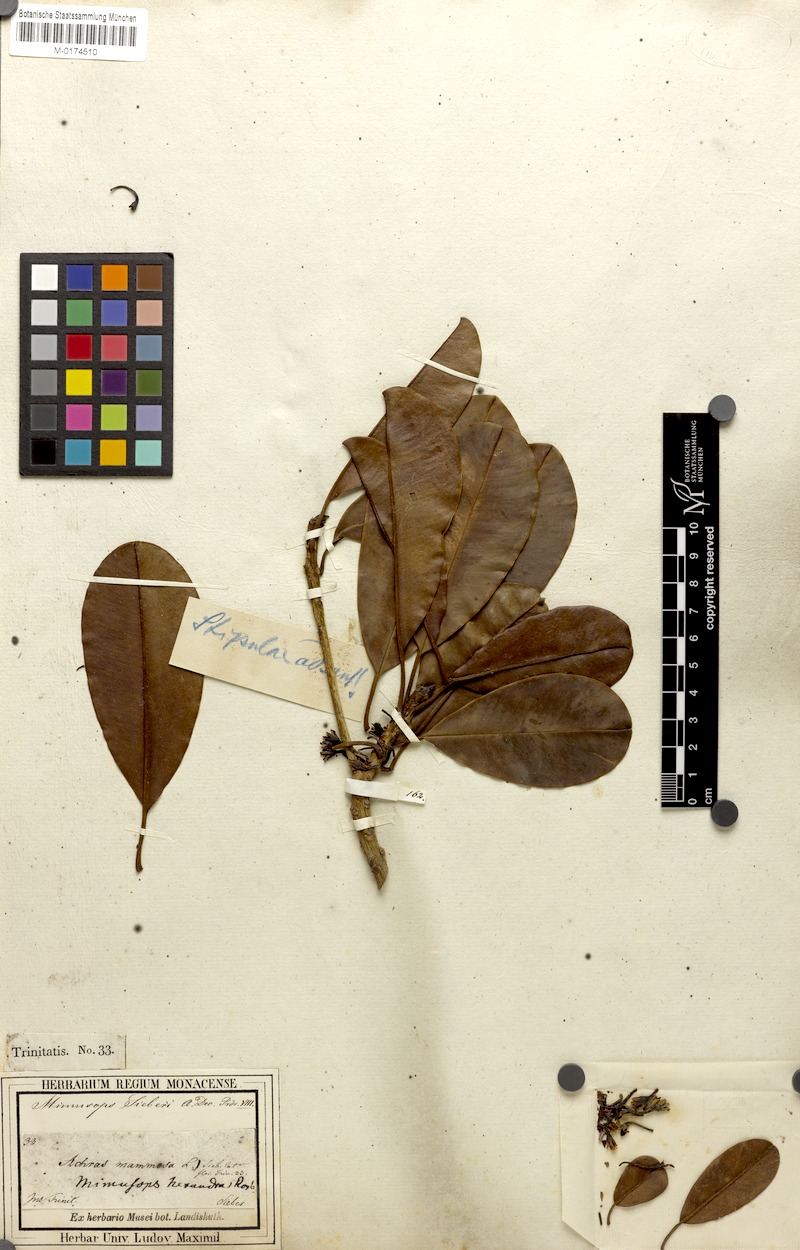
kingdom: Plantae
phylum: Tracheophyta
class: Magnoliopsida
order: Ericales
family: Sapotaceae
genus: Manilkara
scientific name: Manilkara bidentata
